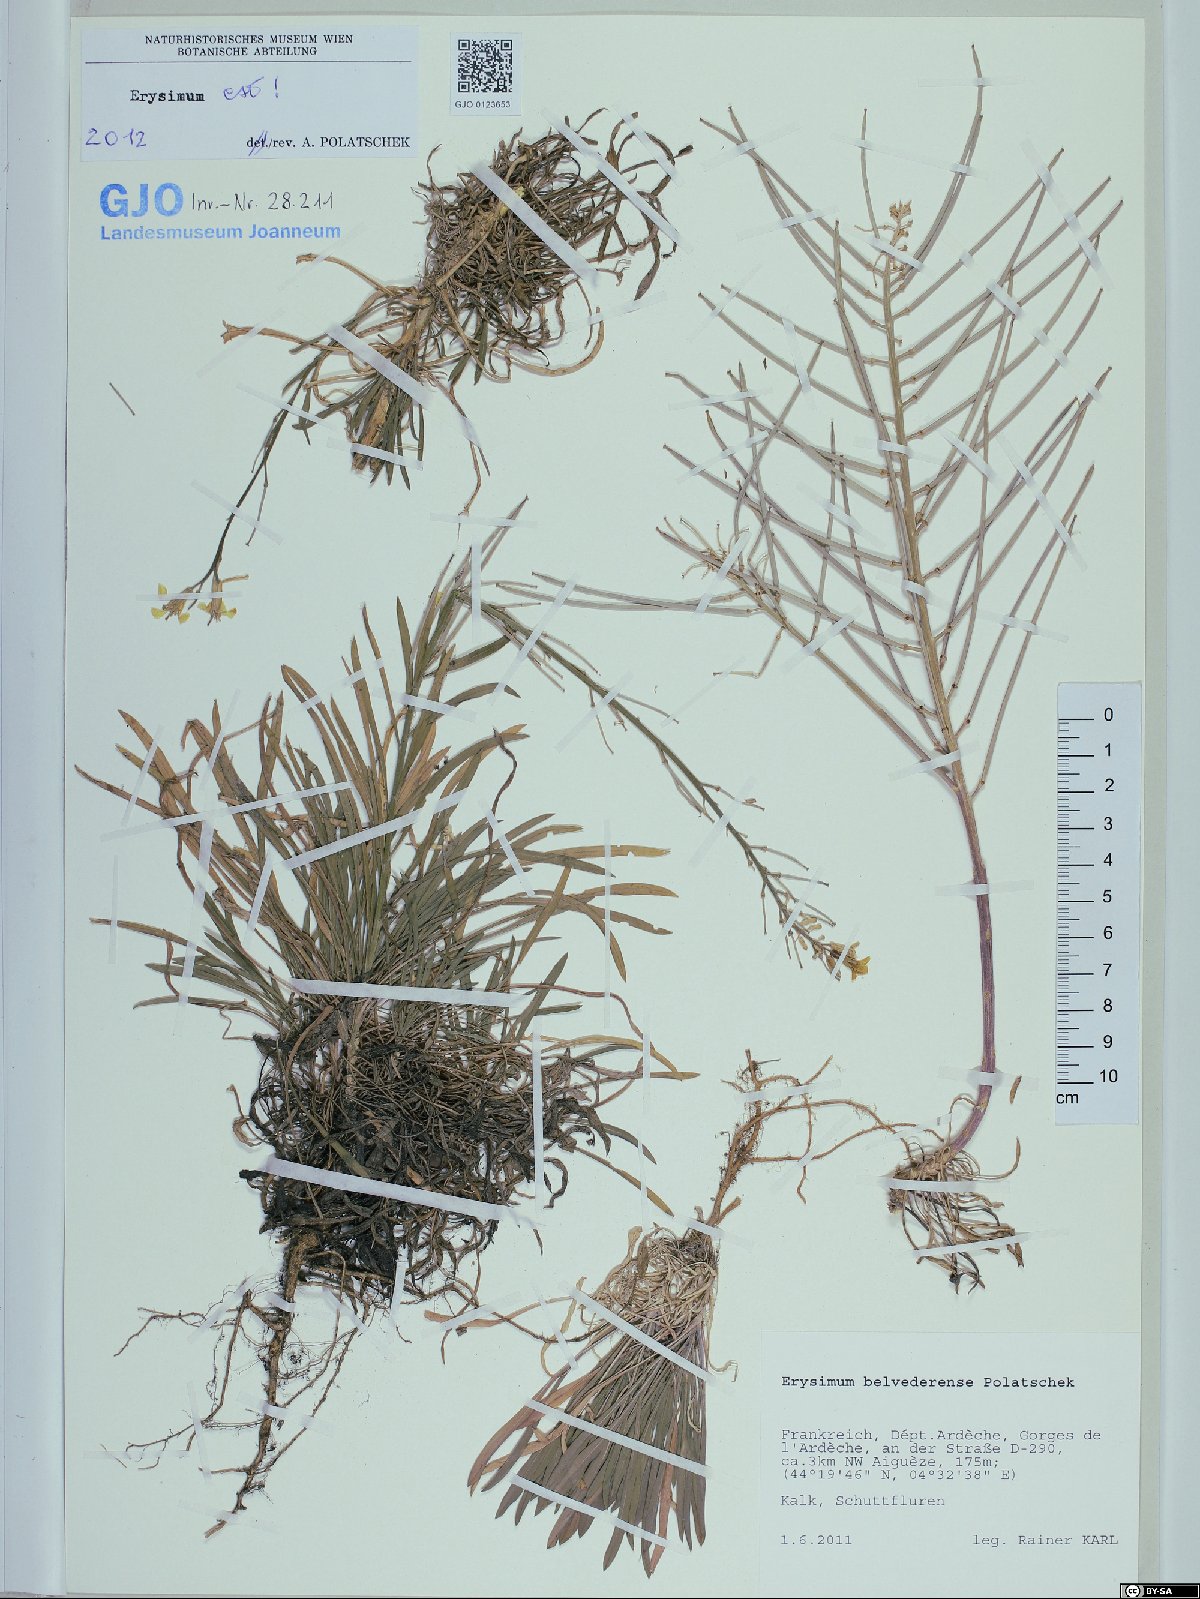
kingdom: Plantae
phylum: Tracheophyta
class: Magnoliopsida
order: Brassicales
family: Brassicaceae
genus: Erysimum
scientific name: Erysimum belvederense
